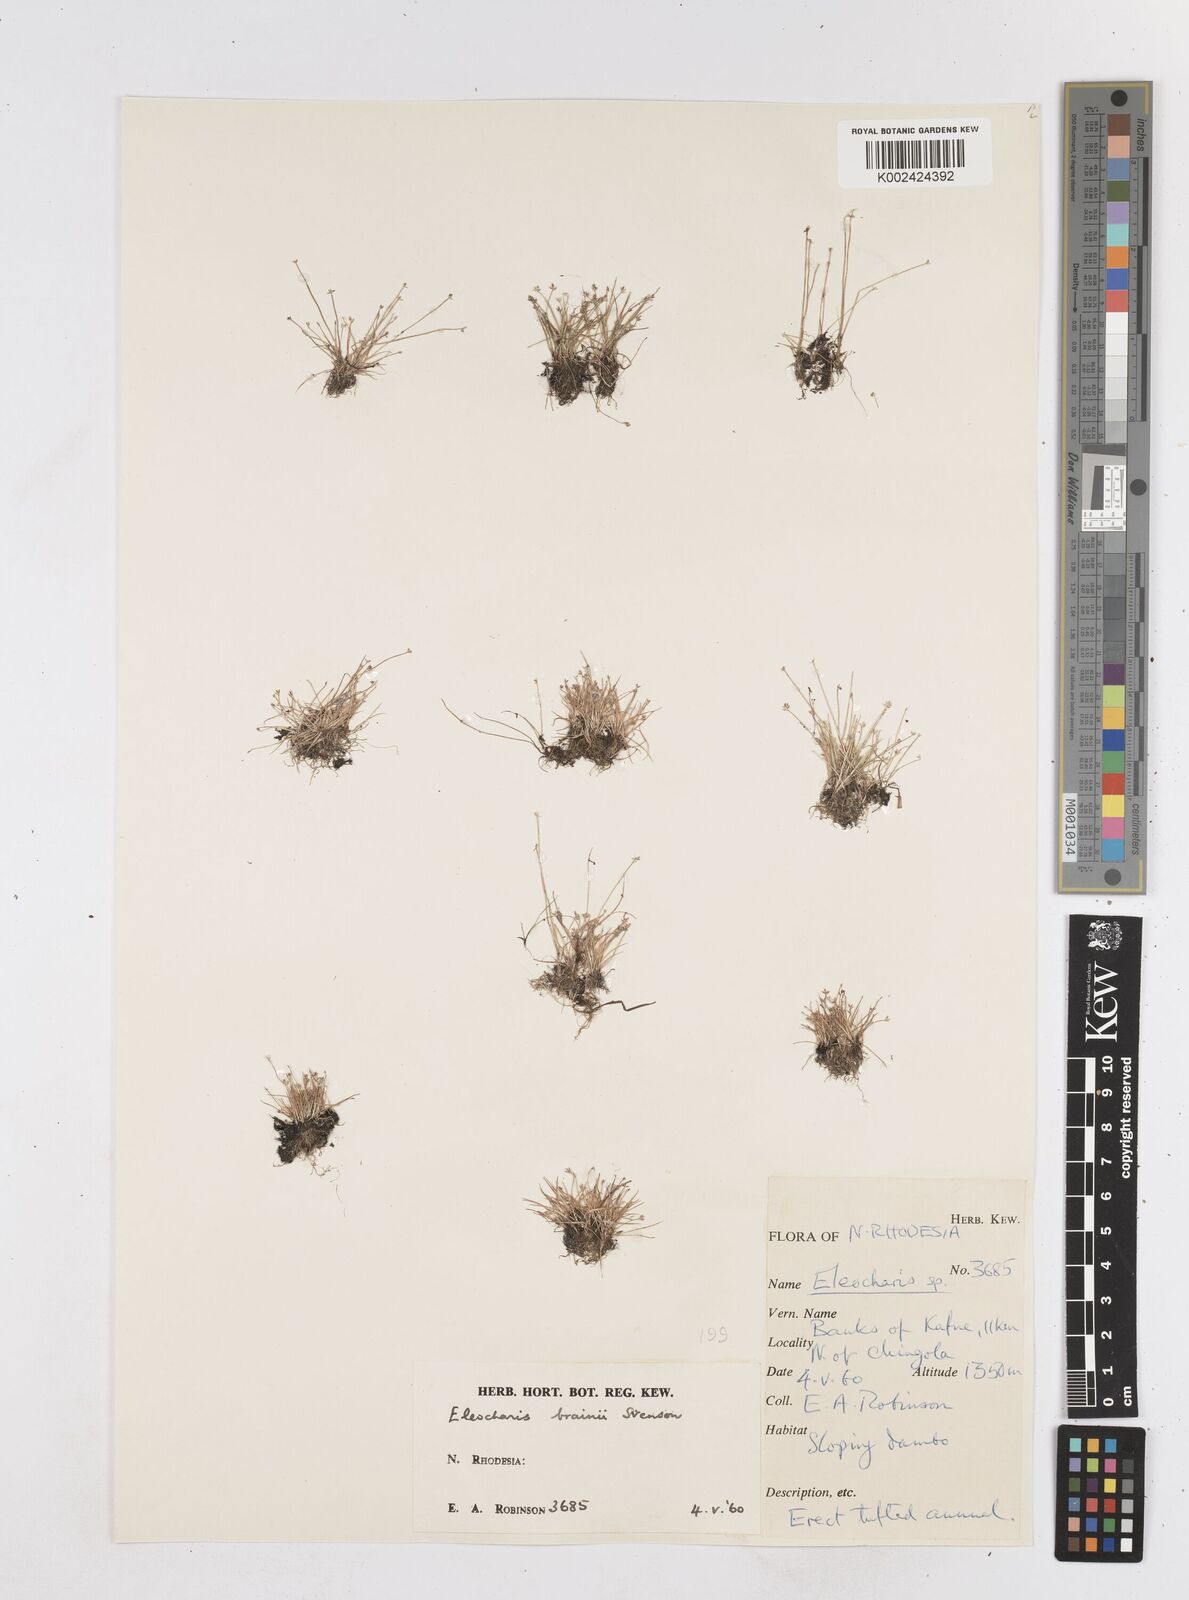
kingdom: Plantae
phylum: Tracheophyta
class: Liliopsida
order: Poales
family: Cyperaceae
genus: Eleocharis
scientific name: Eleocharis brainii
